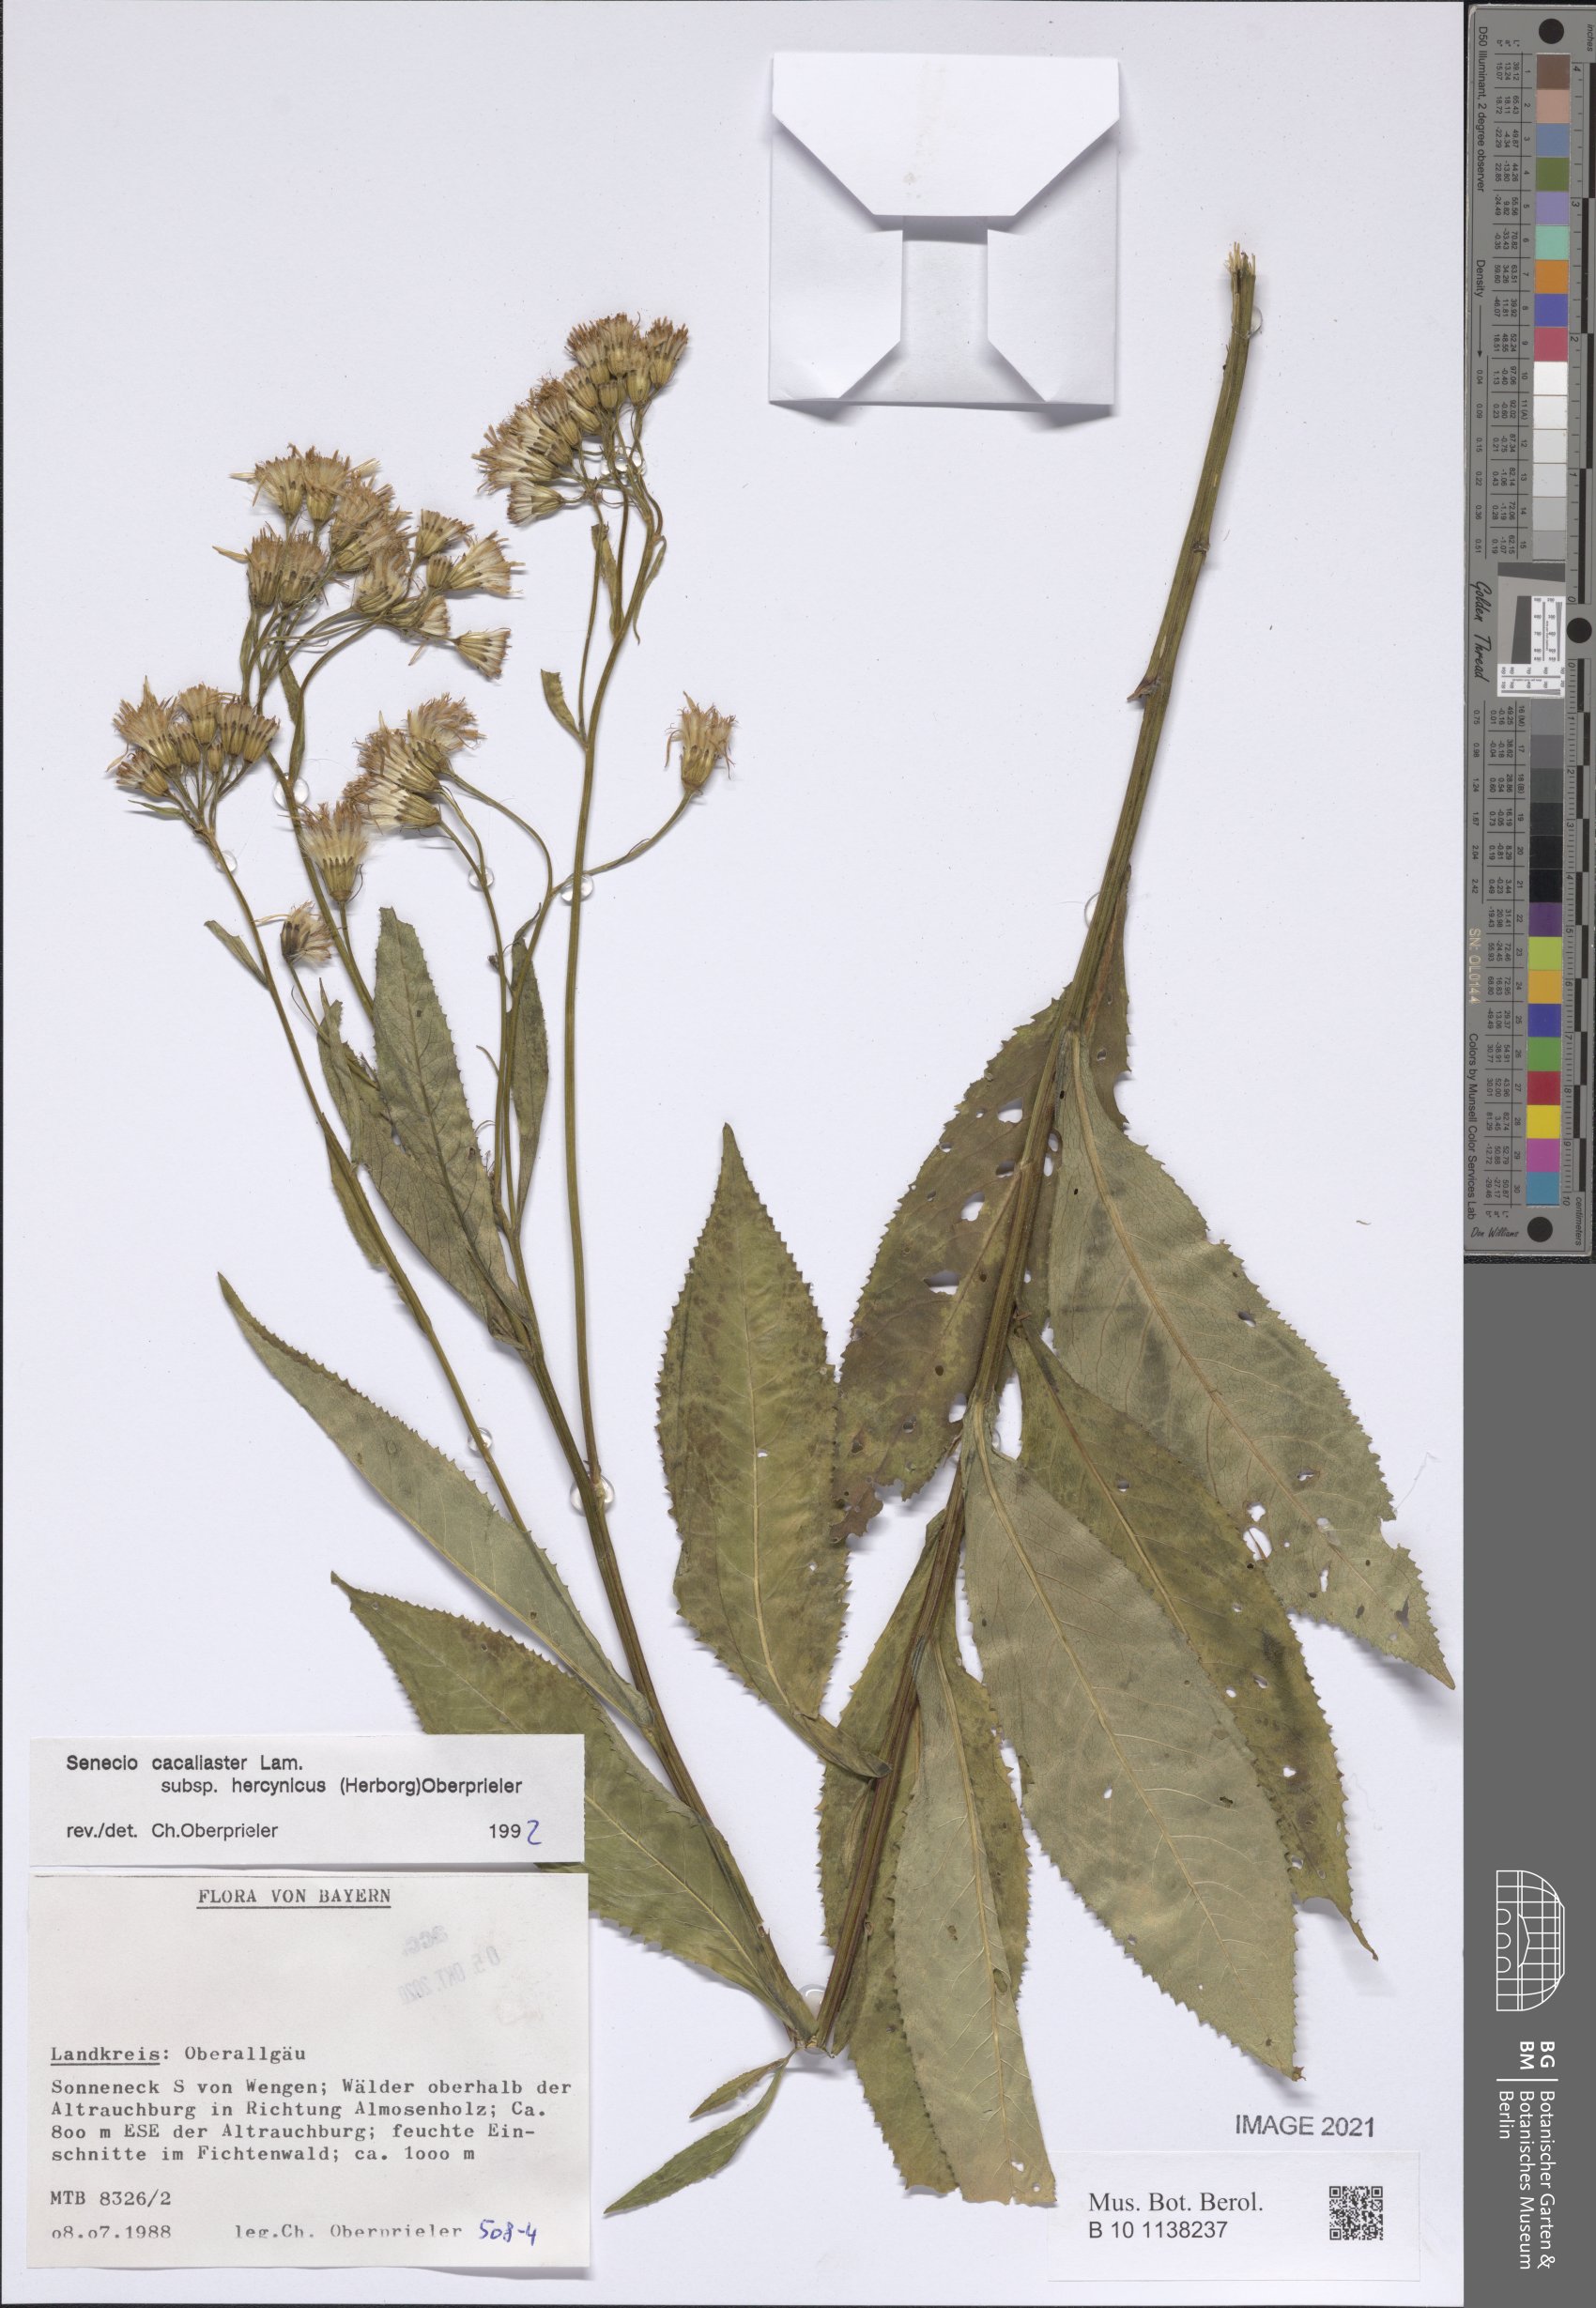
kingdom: Plantae
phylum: Tracheophyta
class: Magnoliopsida
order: Asterales
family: Asteraceae
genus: Senecio
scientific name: Senecio hercynicus
